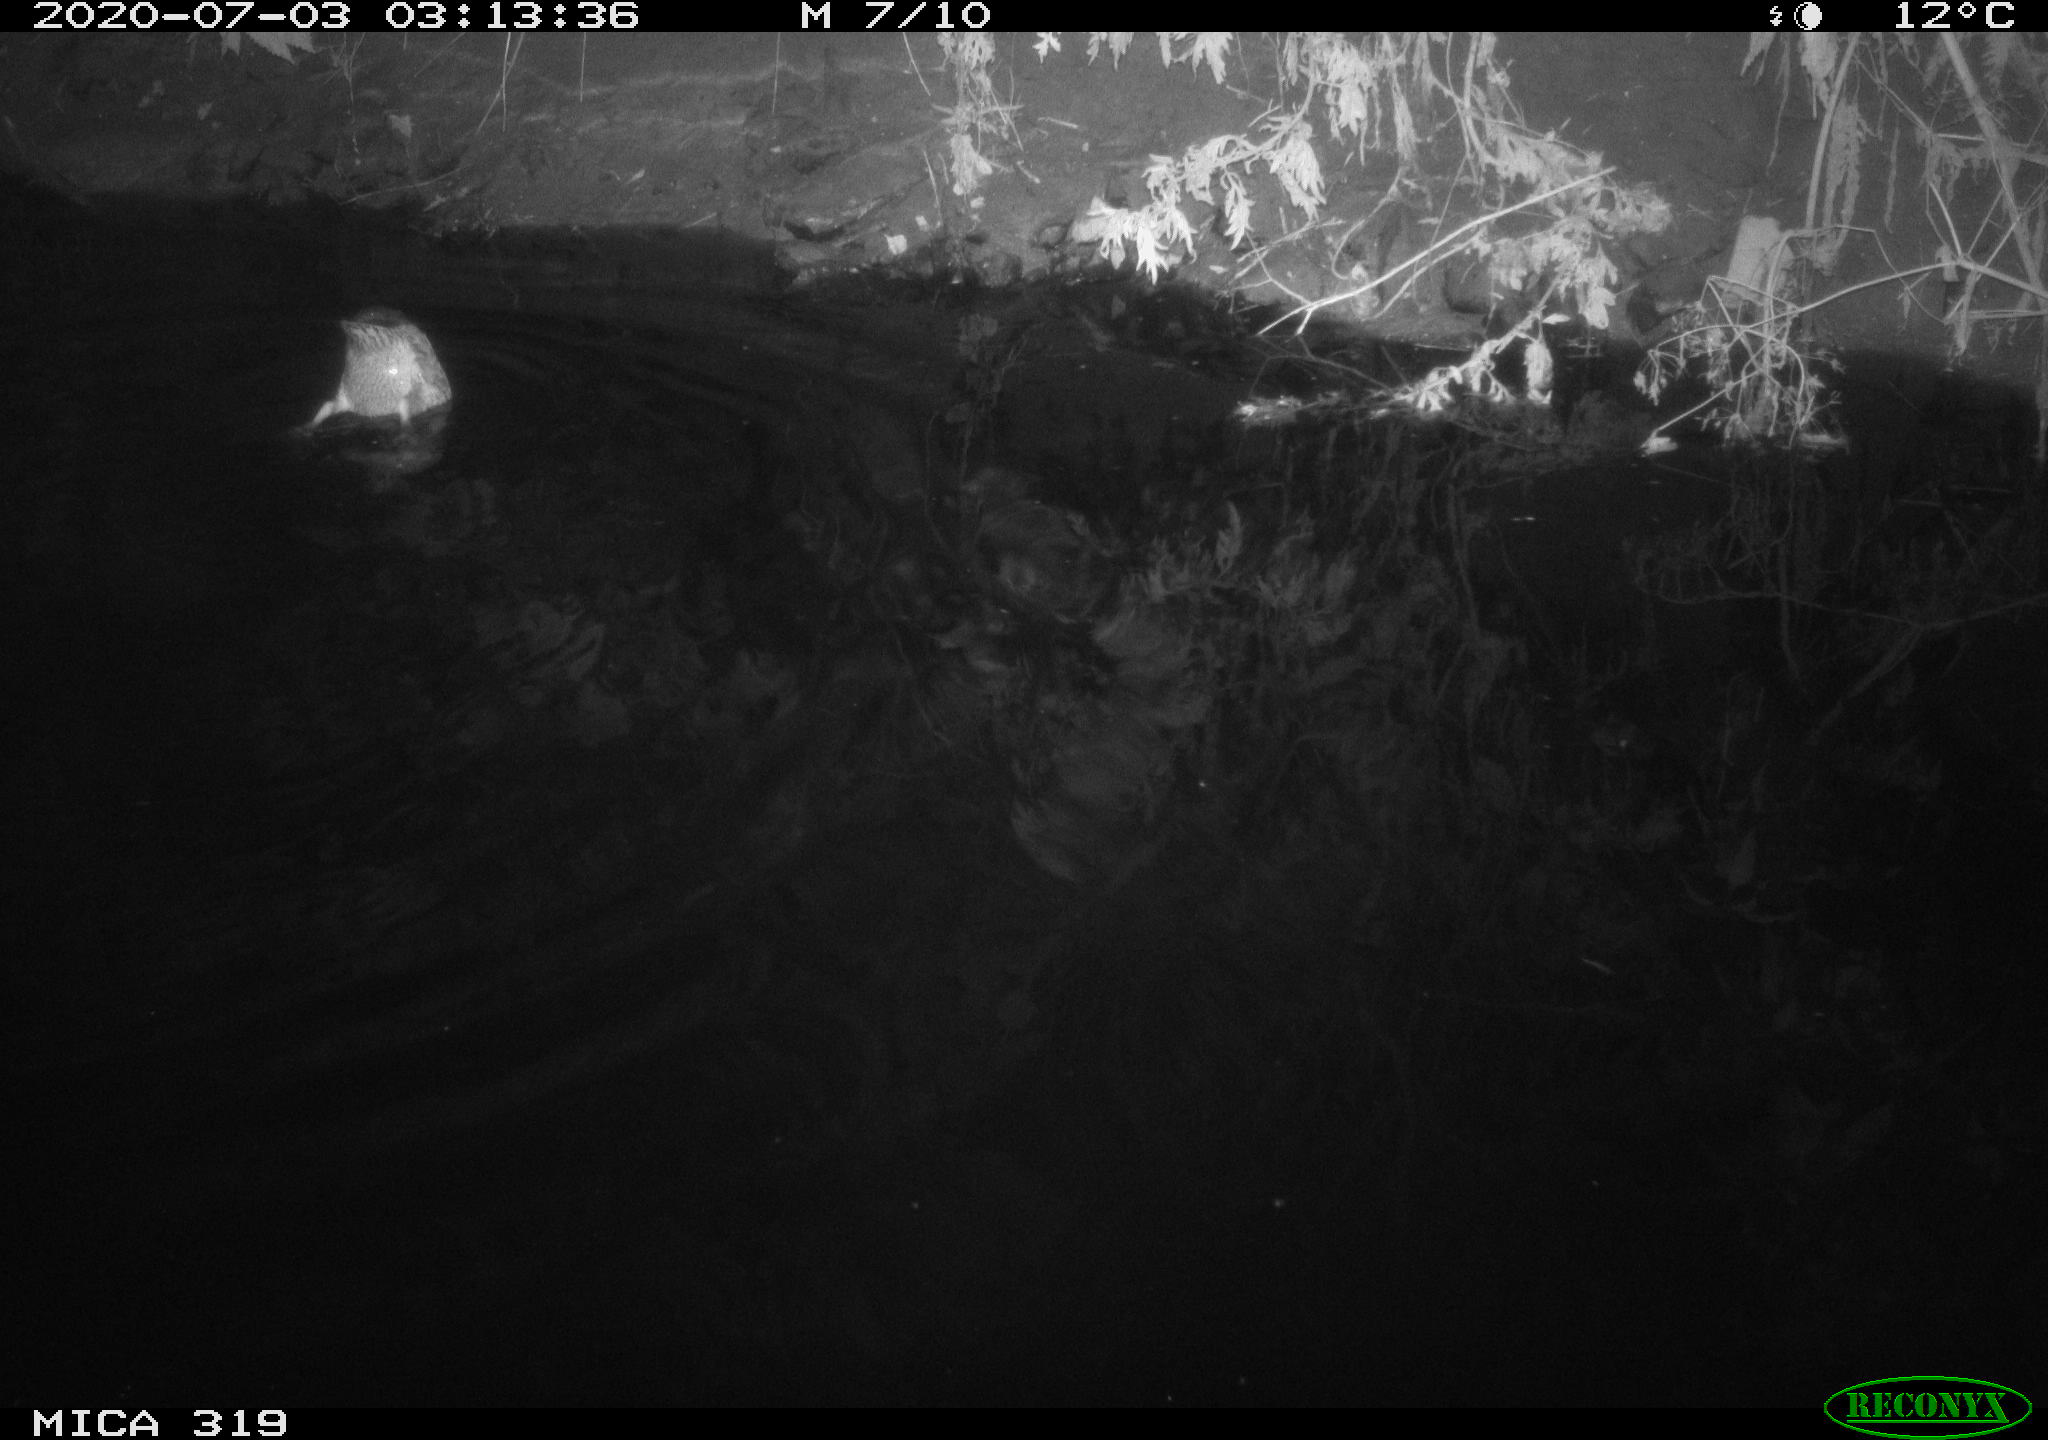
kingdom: Animalia
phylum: Chordata
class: Aves
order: Anseriformes
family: Anatidae
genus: Anas
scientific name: Anas platyrhynchos
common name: Mallard
